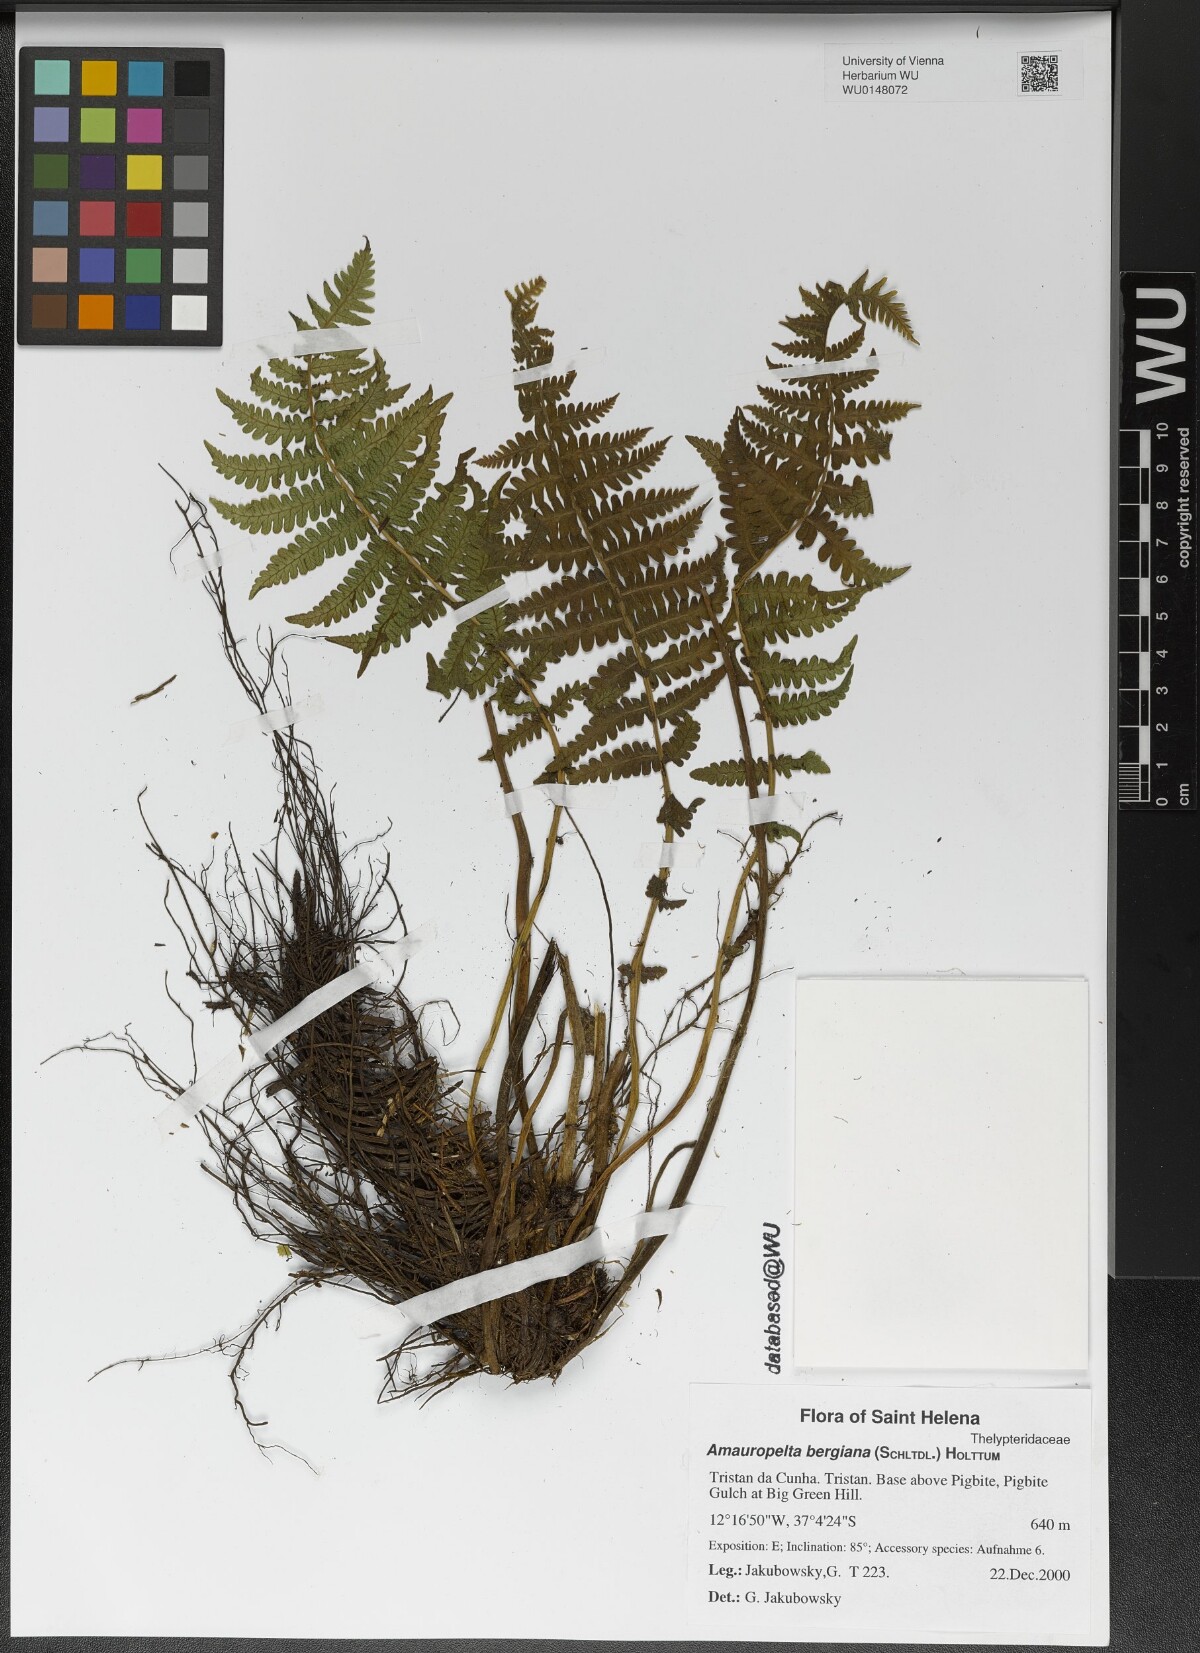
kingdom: Plantae
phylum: Tracheophyta
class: Polypodiopsida
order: Polypodiales
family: Thelypteridaceae
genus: Amauropelta
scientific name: Amauropelta bergiana
